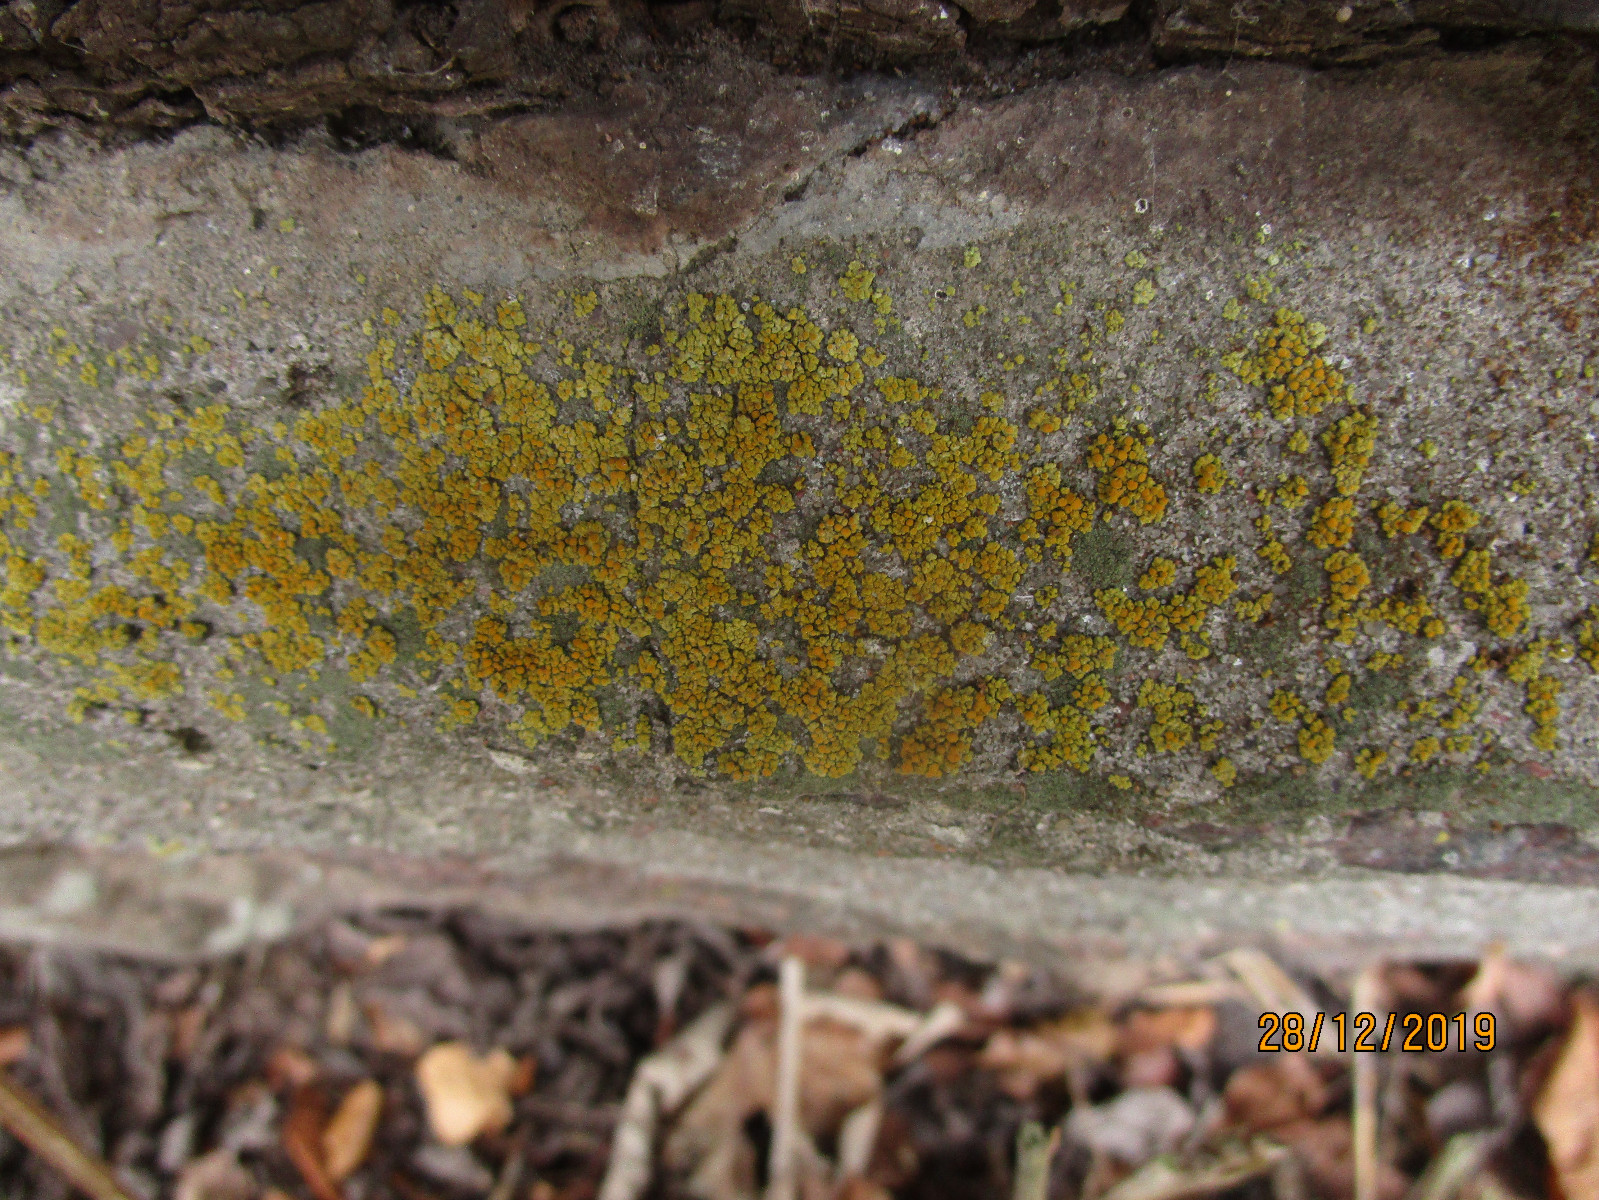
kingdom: Fungi
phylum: Ascomycota
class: Lecanoromycetes
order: Teloschistales
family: Teloschistaceae
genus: Calogaya
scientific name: Calogaya saxicola
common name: mur-orangelav
